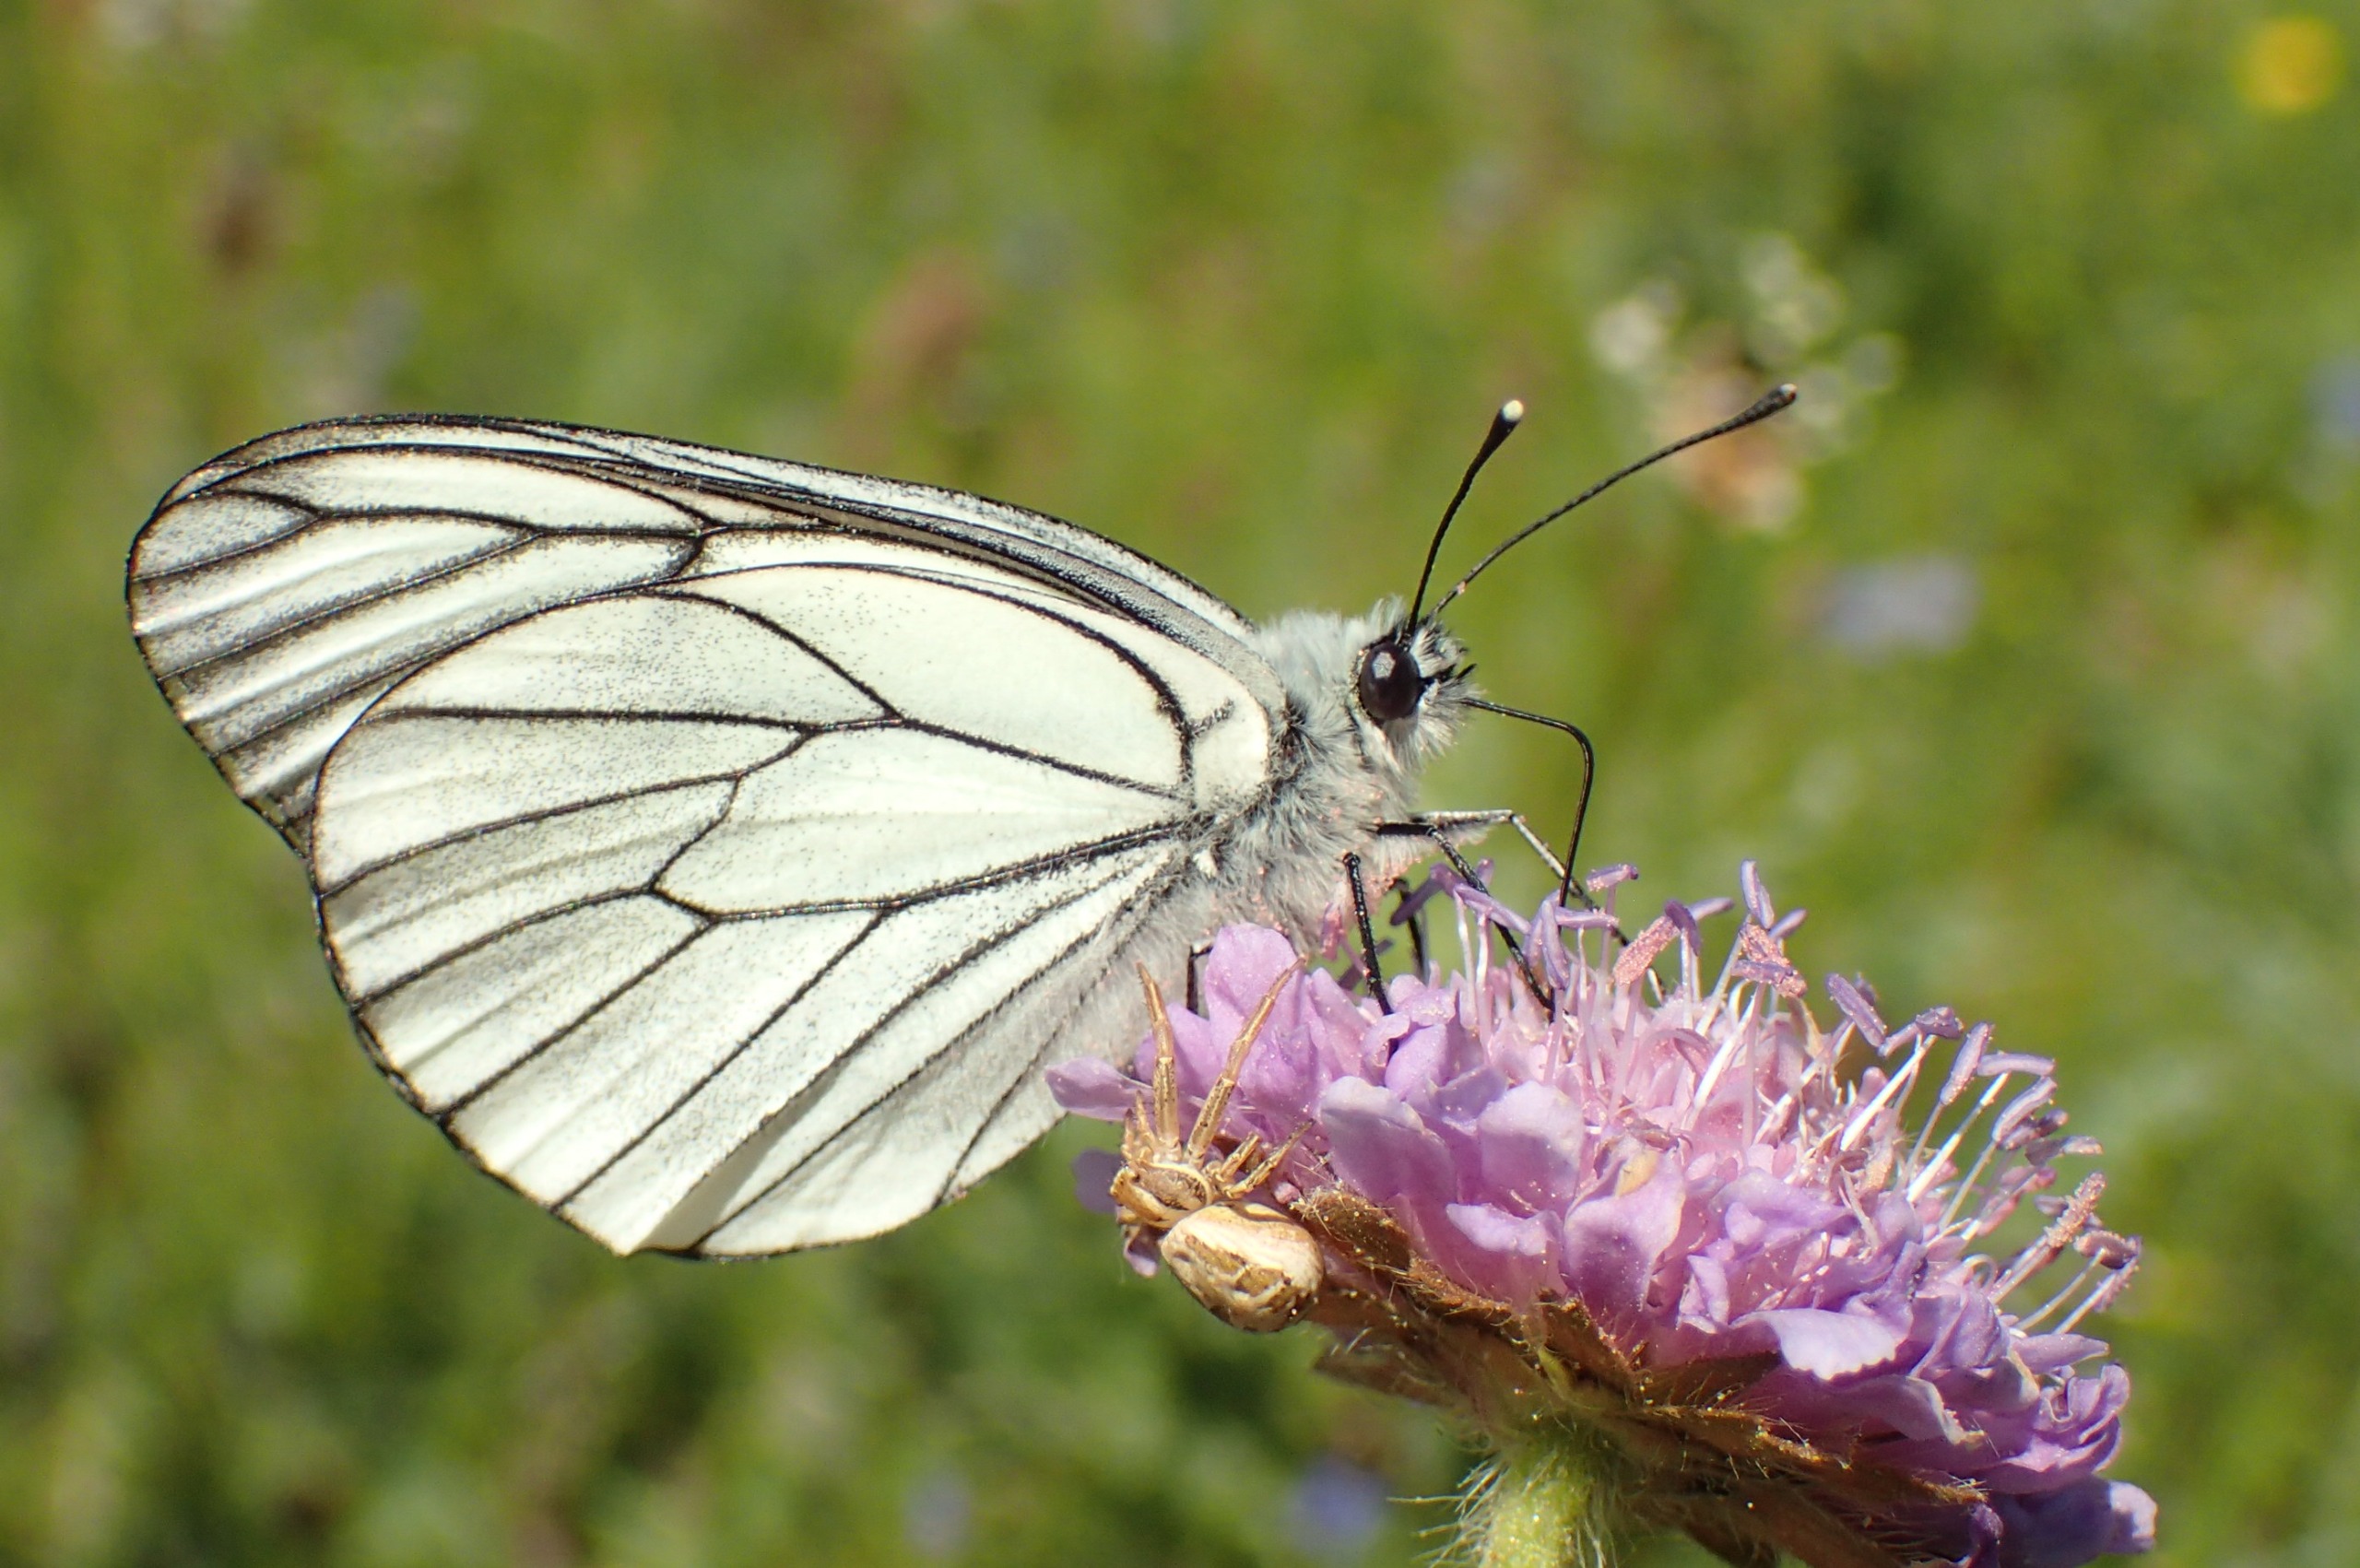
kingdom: Animalia
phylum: Arthropoda
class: Insecta
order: Lepidoptera
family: Pieridae
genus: Aporia
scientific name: Aporia crataegi
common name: Sortåret hvidvinge
